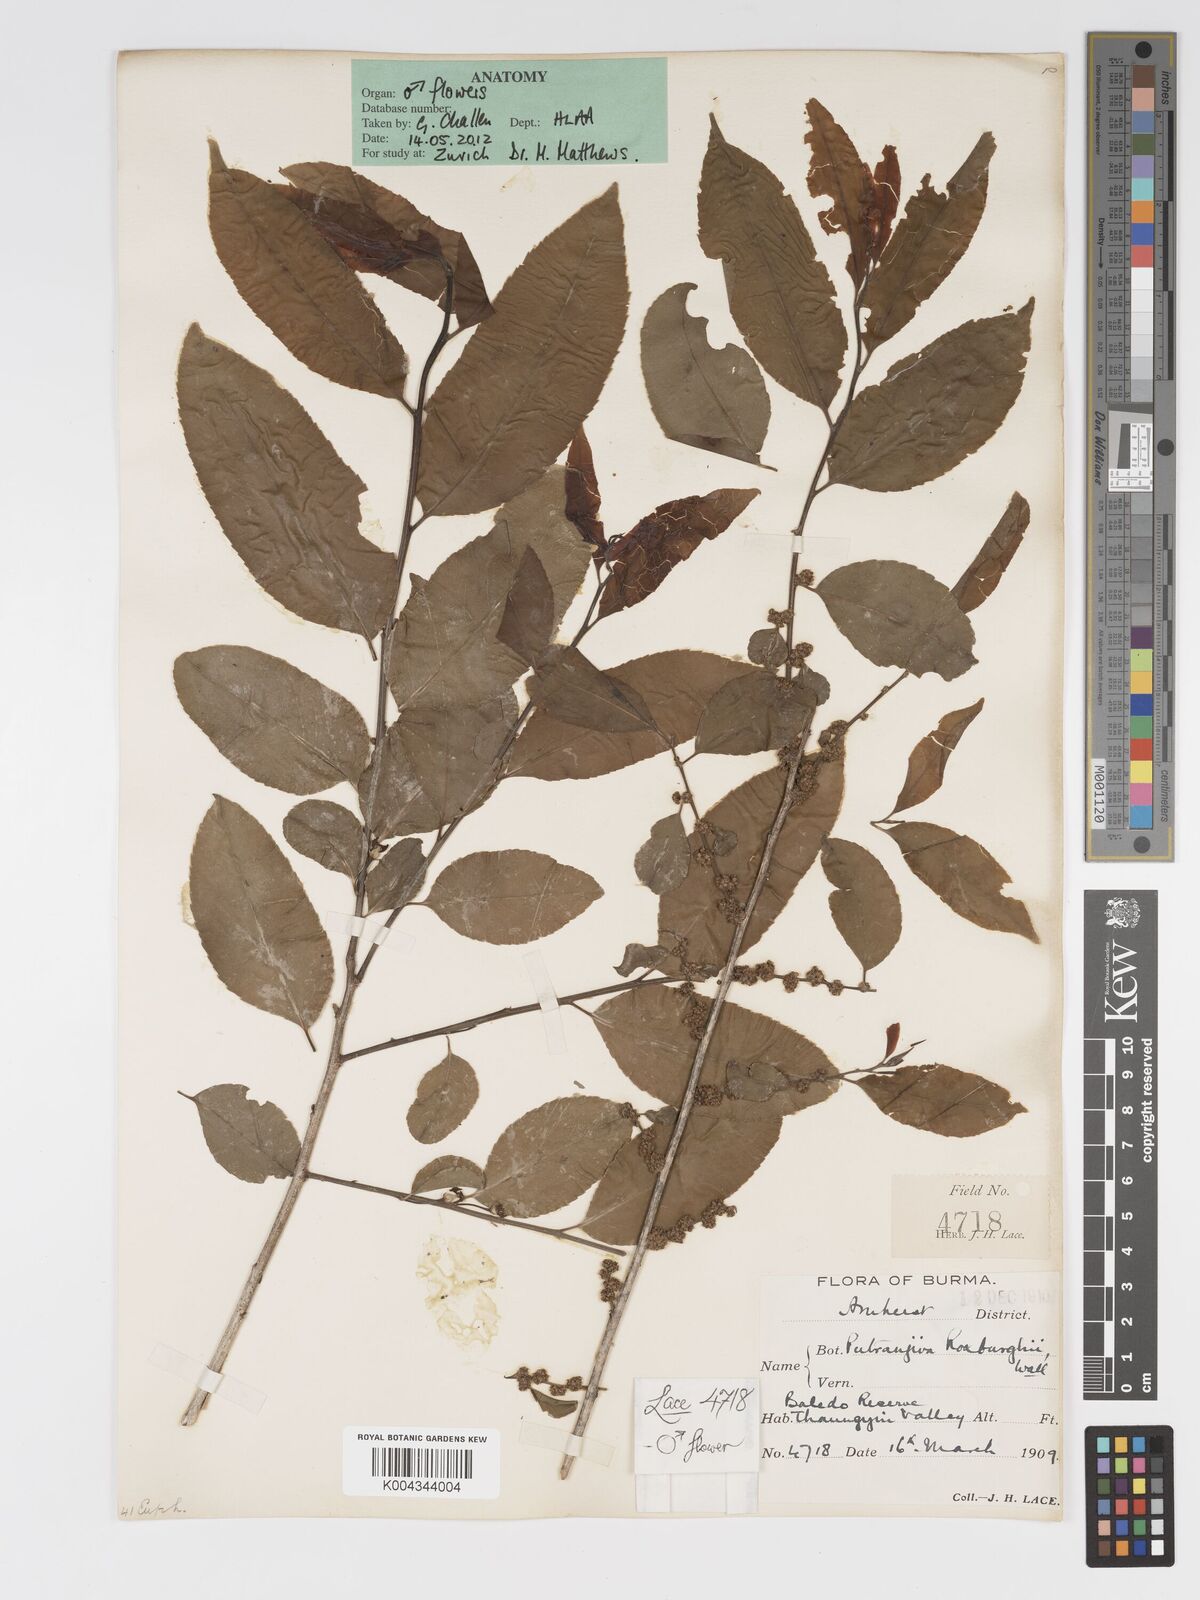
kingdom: Plantae
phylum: Tracheophyta
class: Magnoliopsida
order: Malpighiales
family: Putranjivaceae
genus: Putranjiva
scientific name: Putranjiva roxburghii
